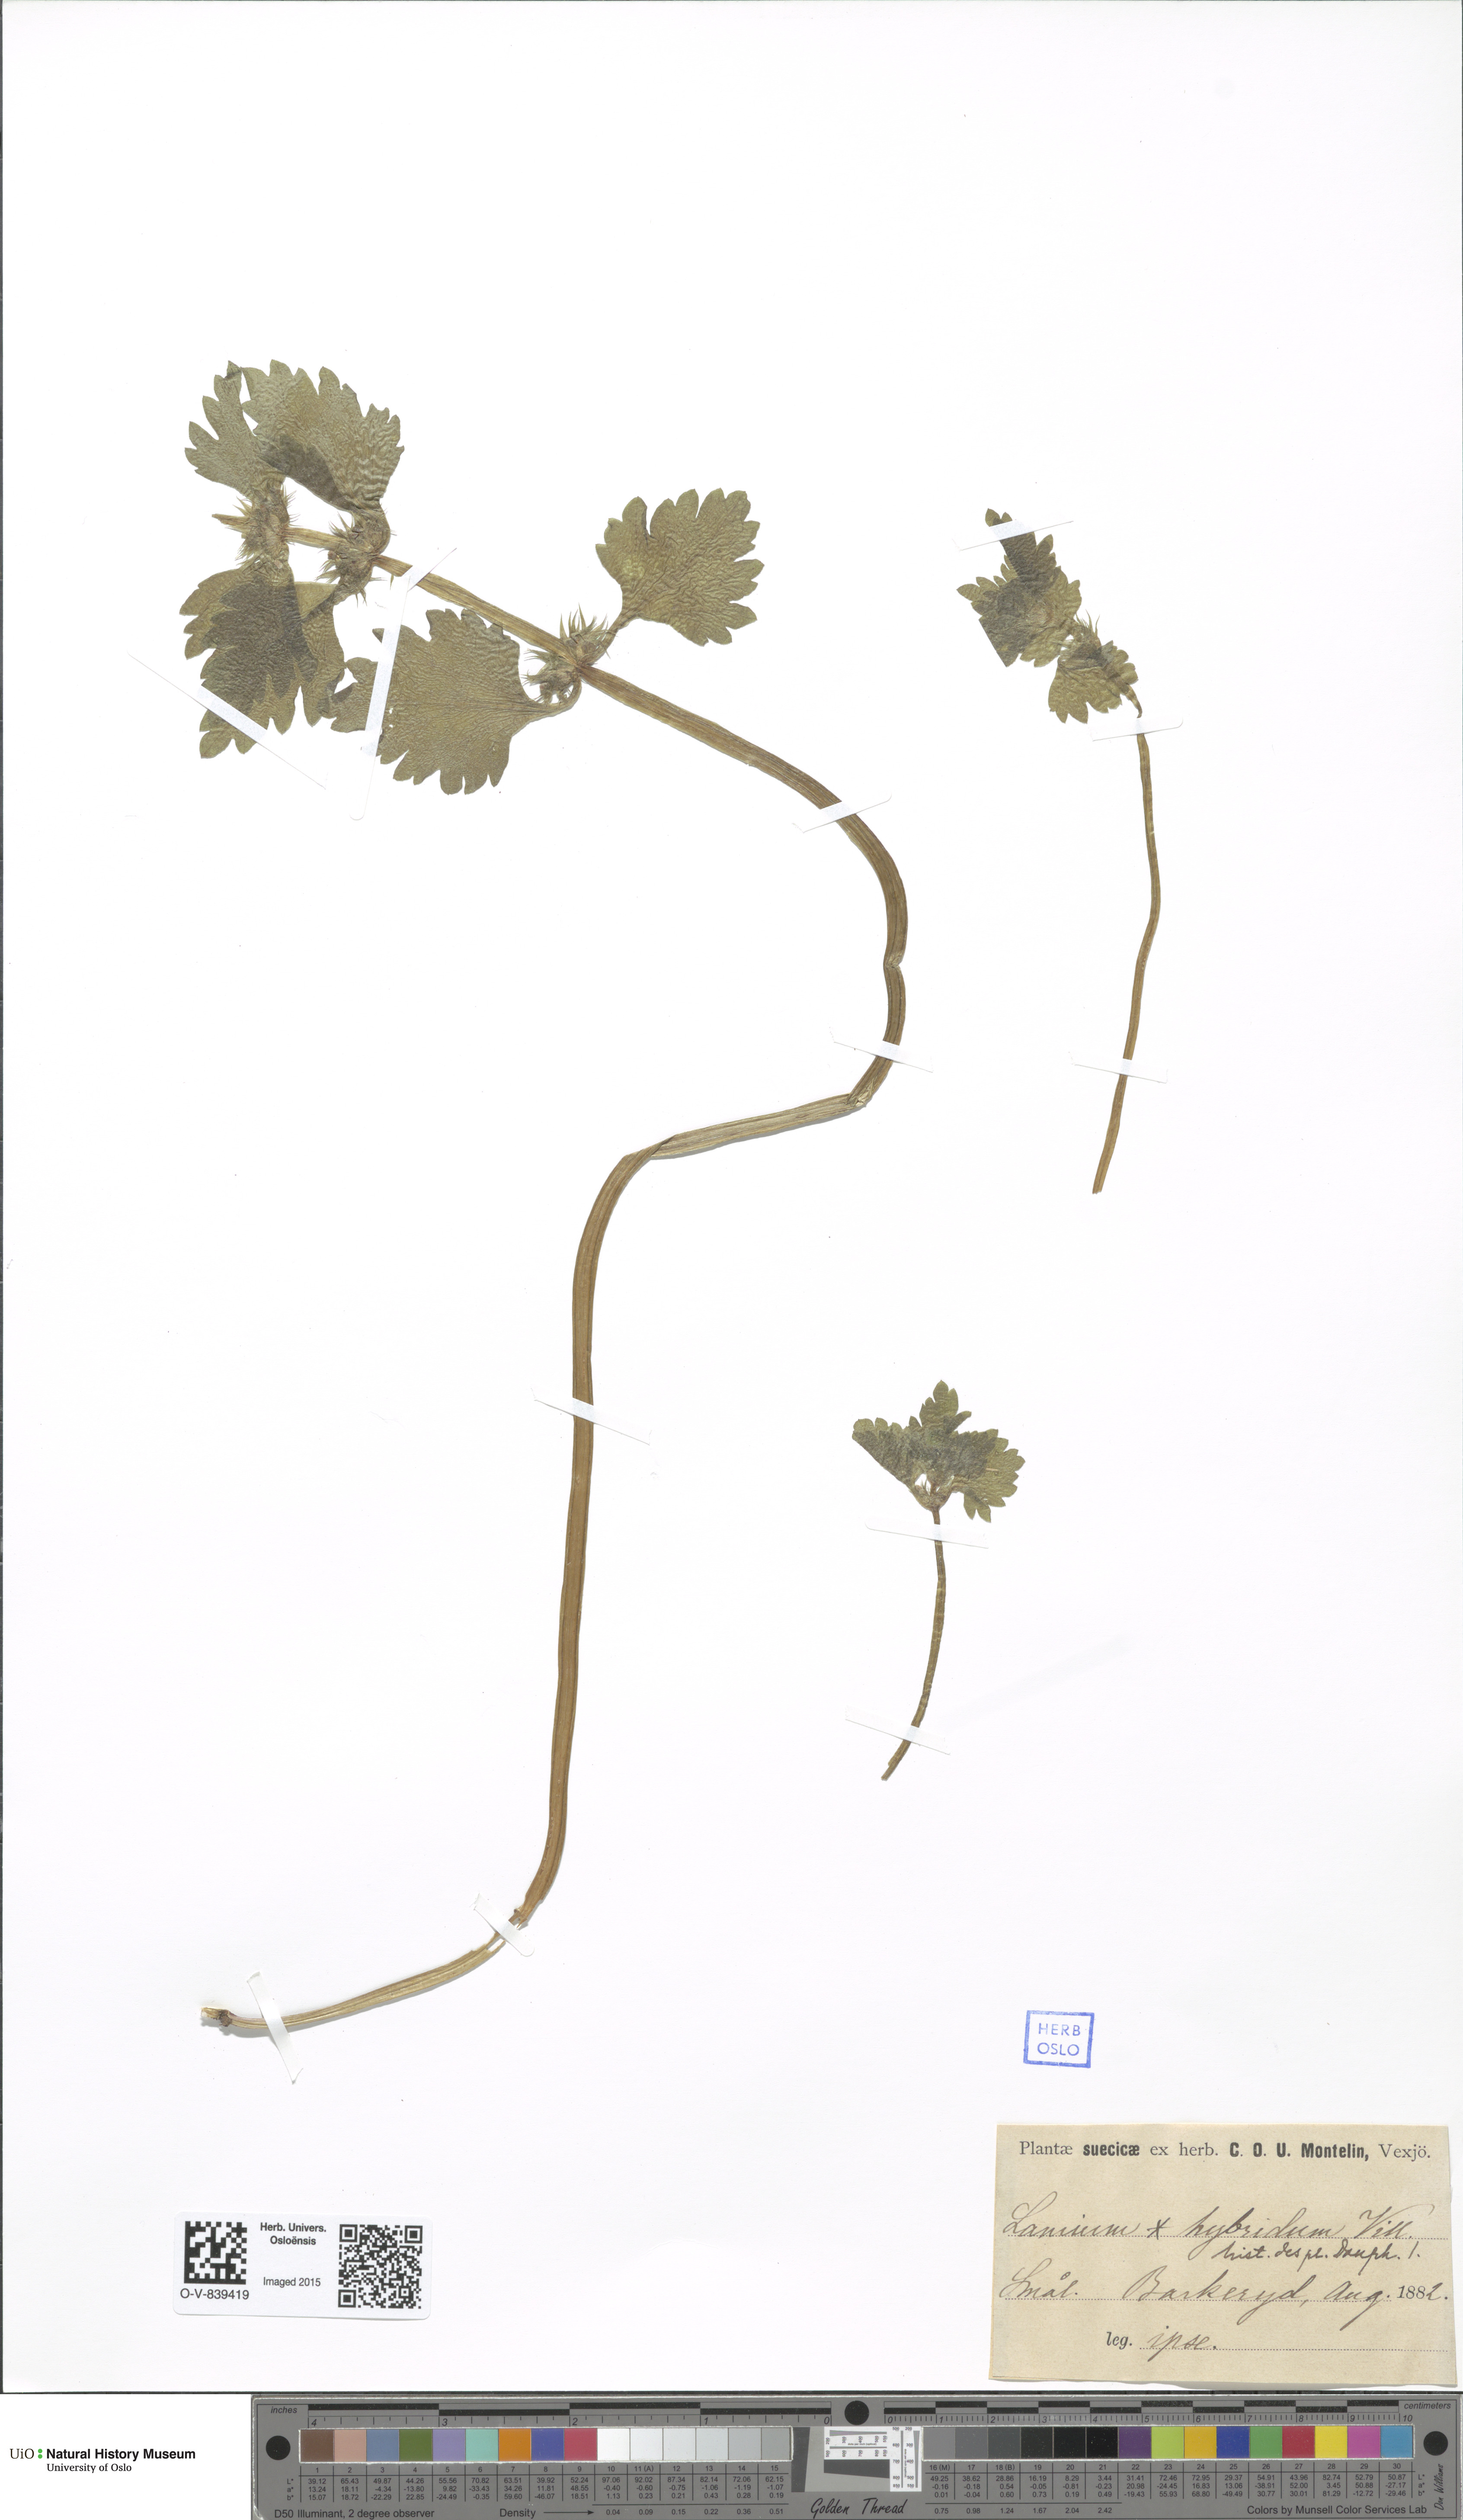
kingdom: Plantae
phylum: Tracheophyta
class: Magnoliopsida
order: Lamiales
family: Lamiaceae
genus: Lamium
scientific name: Lamium hybridum
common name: Cut-leaved dead-nettle
